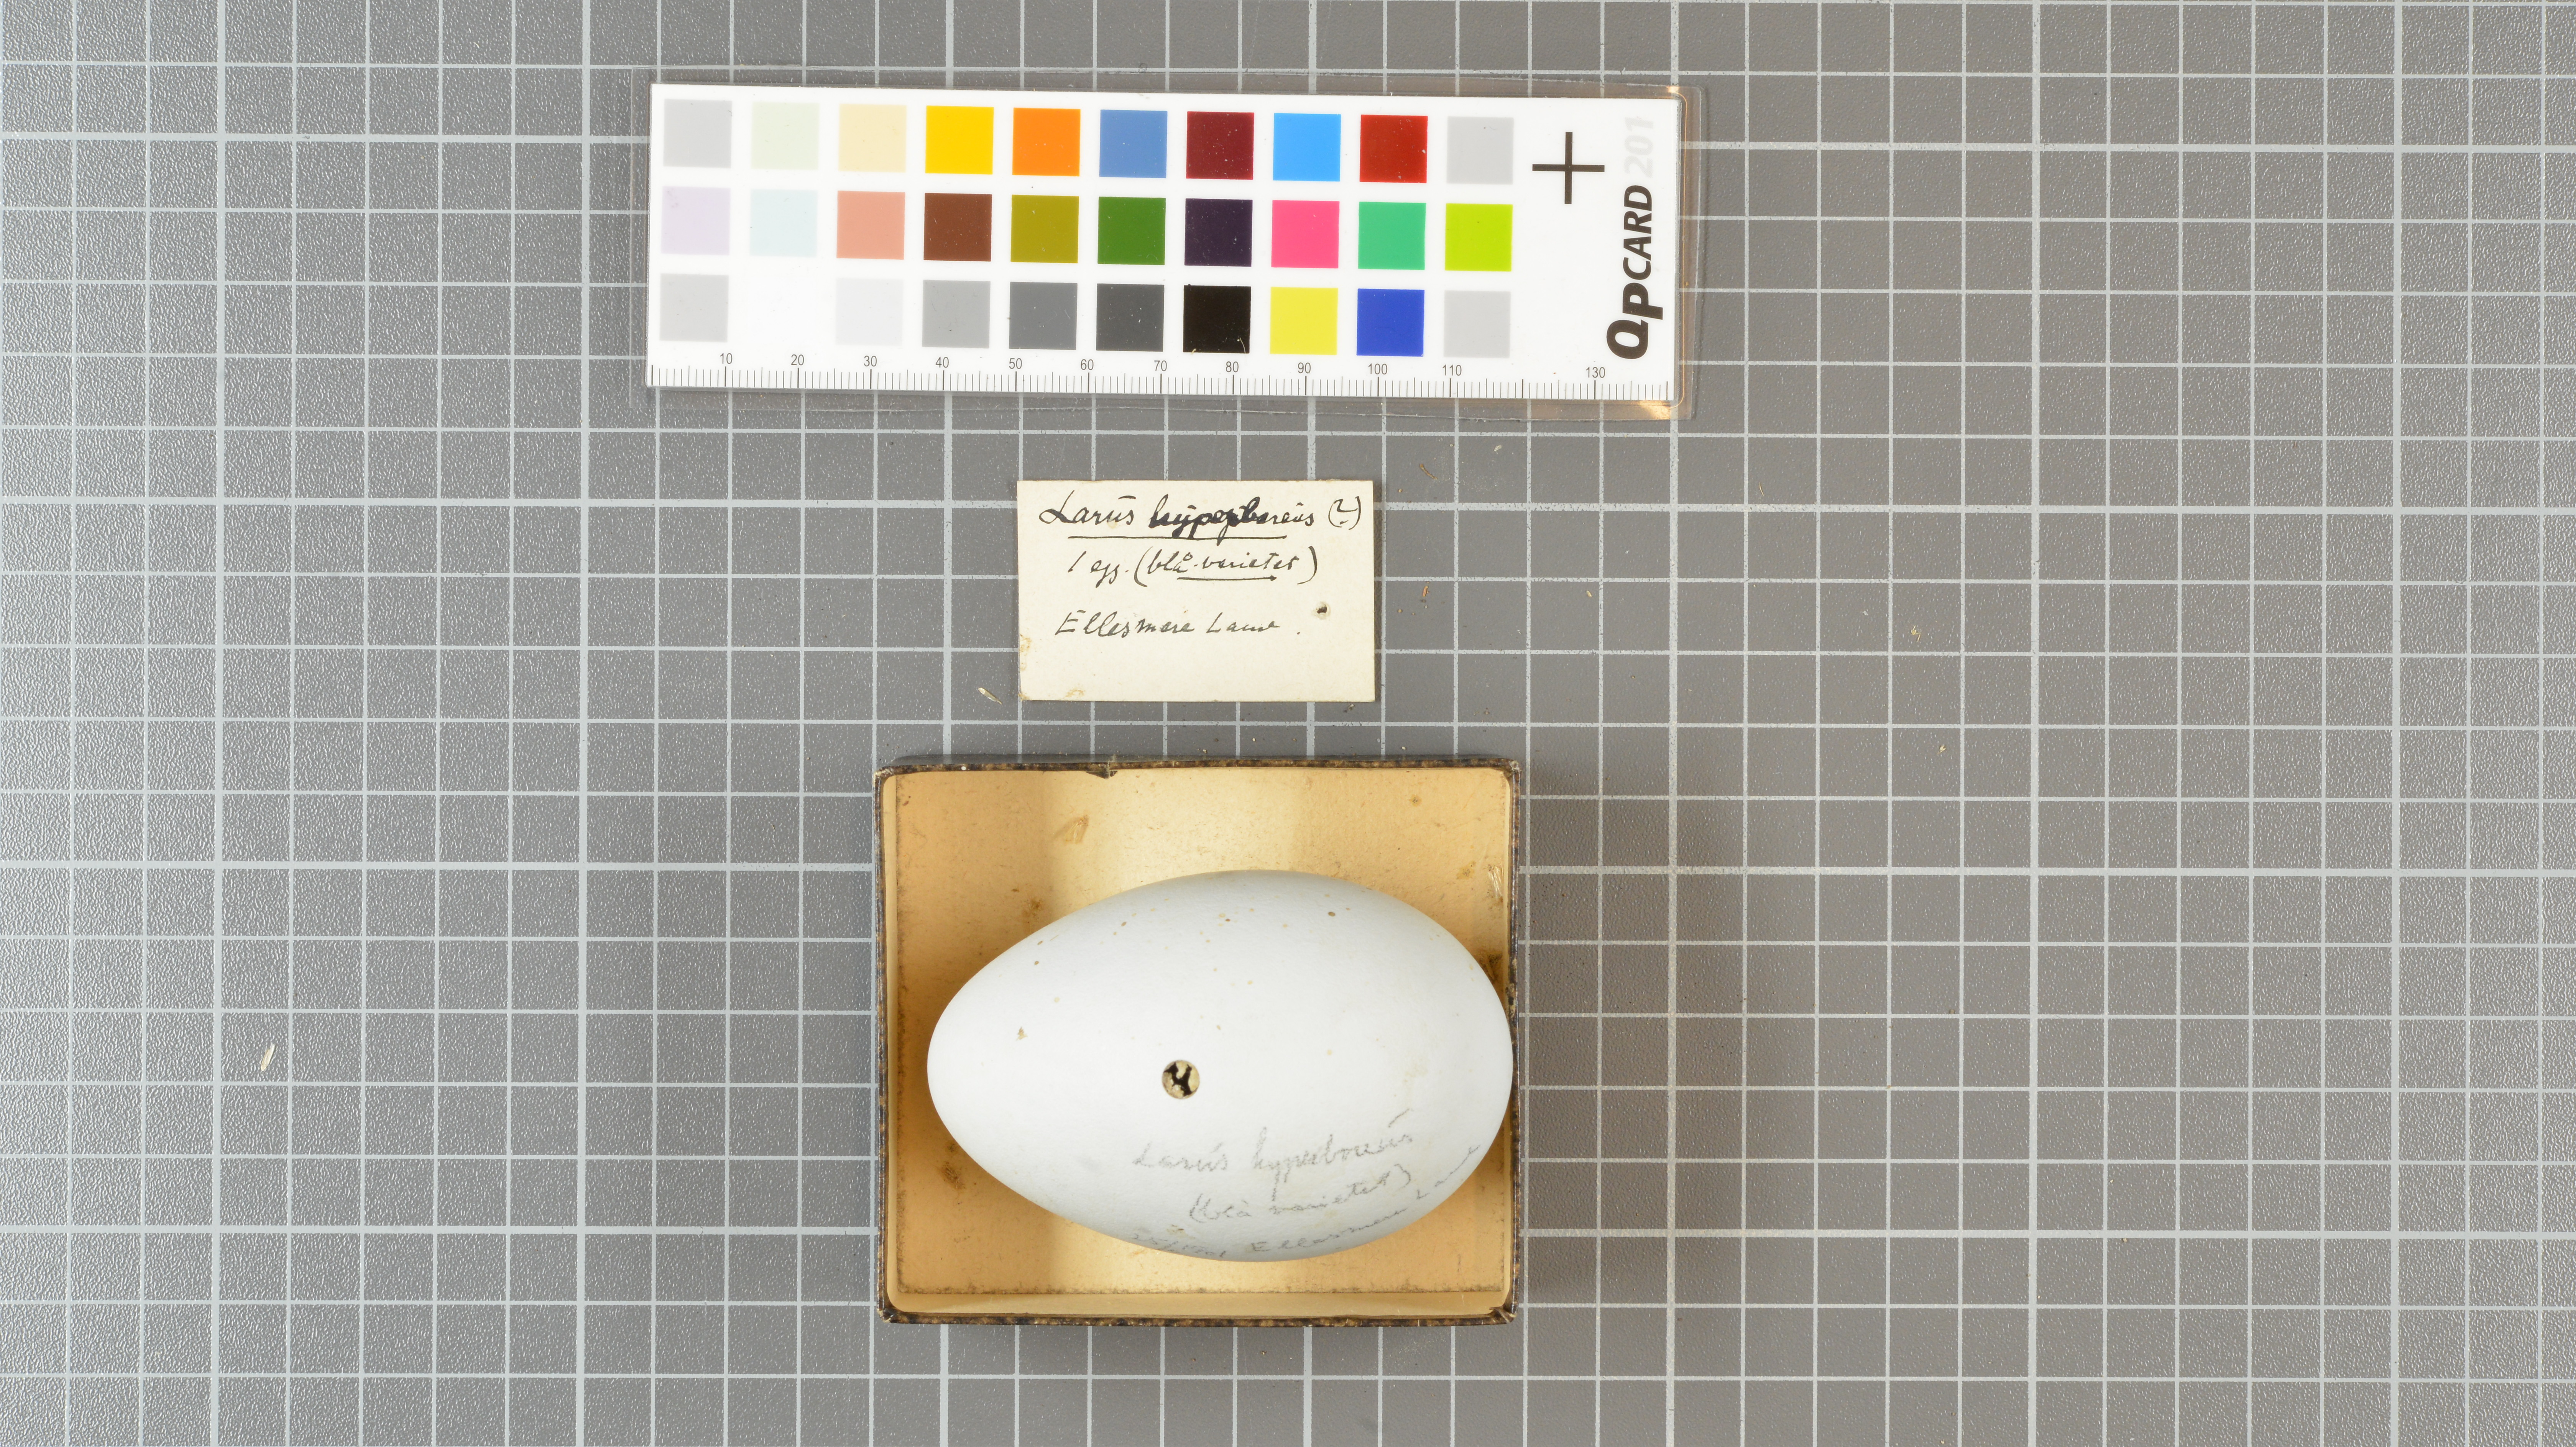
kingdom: Animalia
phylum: Chordata
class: Aves
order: Charadriiformes
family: Laridae
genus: Larus
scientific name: Larus hyperboreus
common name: Glaucous gull
